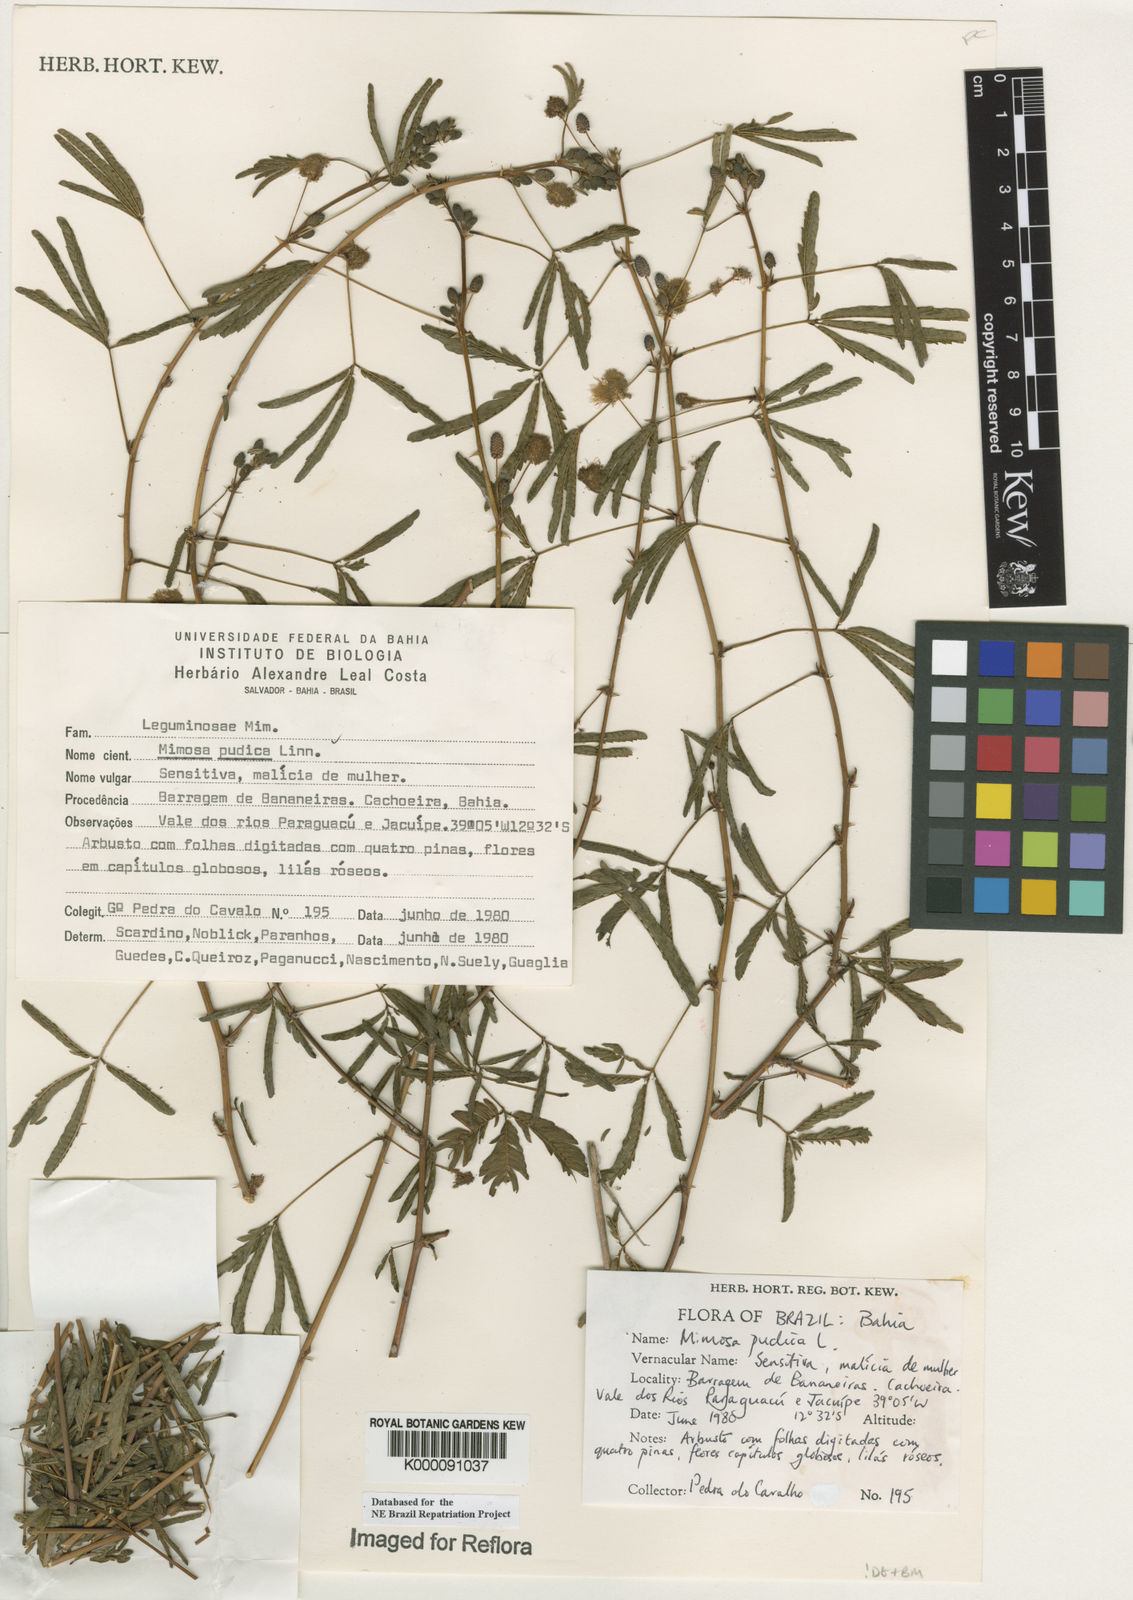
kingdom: Plantae
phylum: Tracheophyta
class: Magnoliopsida
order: Fabales
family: Fabaceae
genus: Mimosa
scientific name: Mimosa pudica
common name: Sensitive plant
